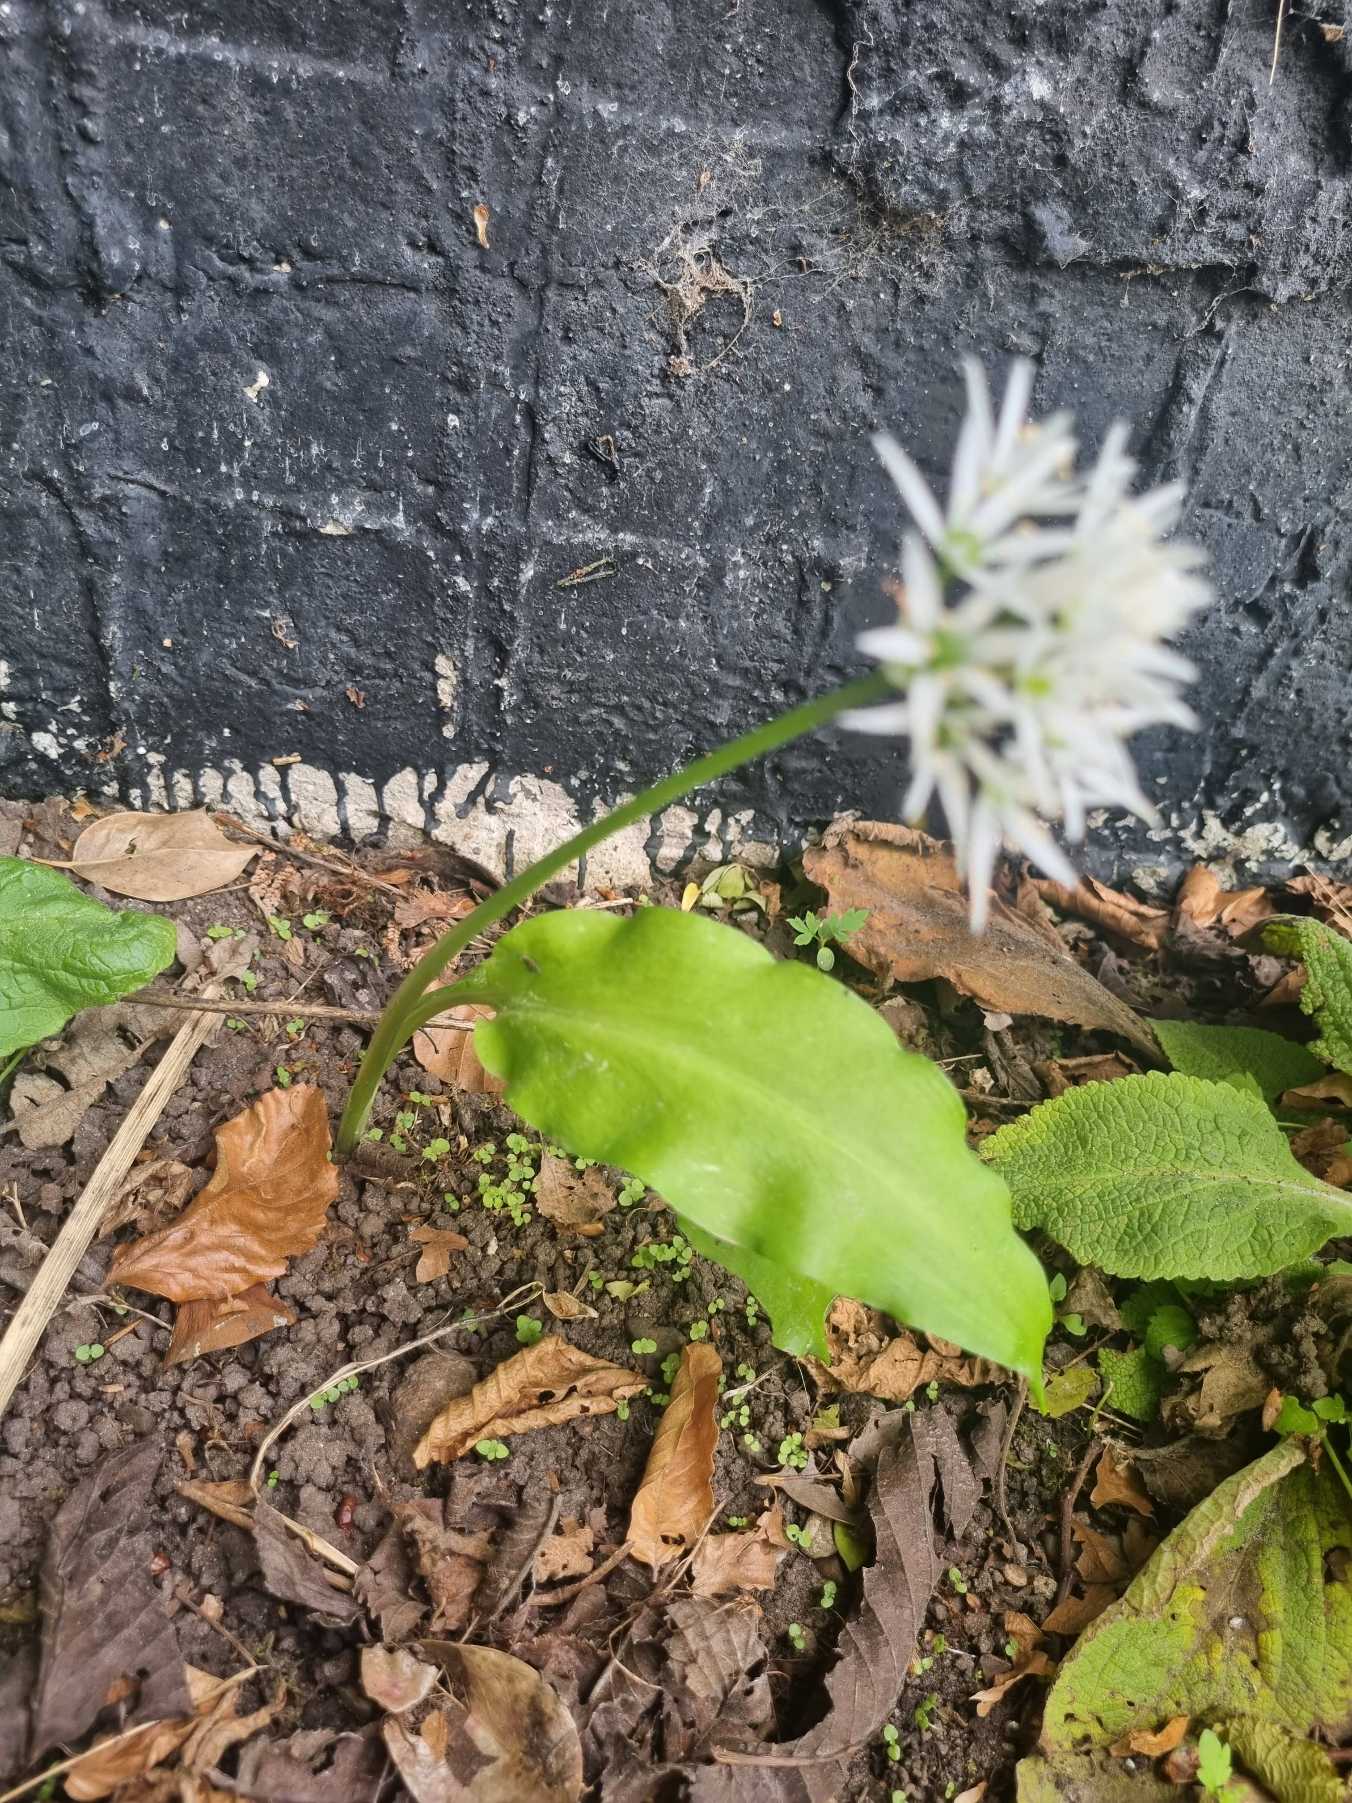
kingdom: Plantae
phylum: Tracheophyta
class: Liliopsida
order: Asparagales
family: Amaryllidaceae
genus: Allium
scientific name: Allium ursinum
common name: Rams-løg
